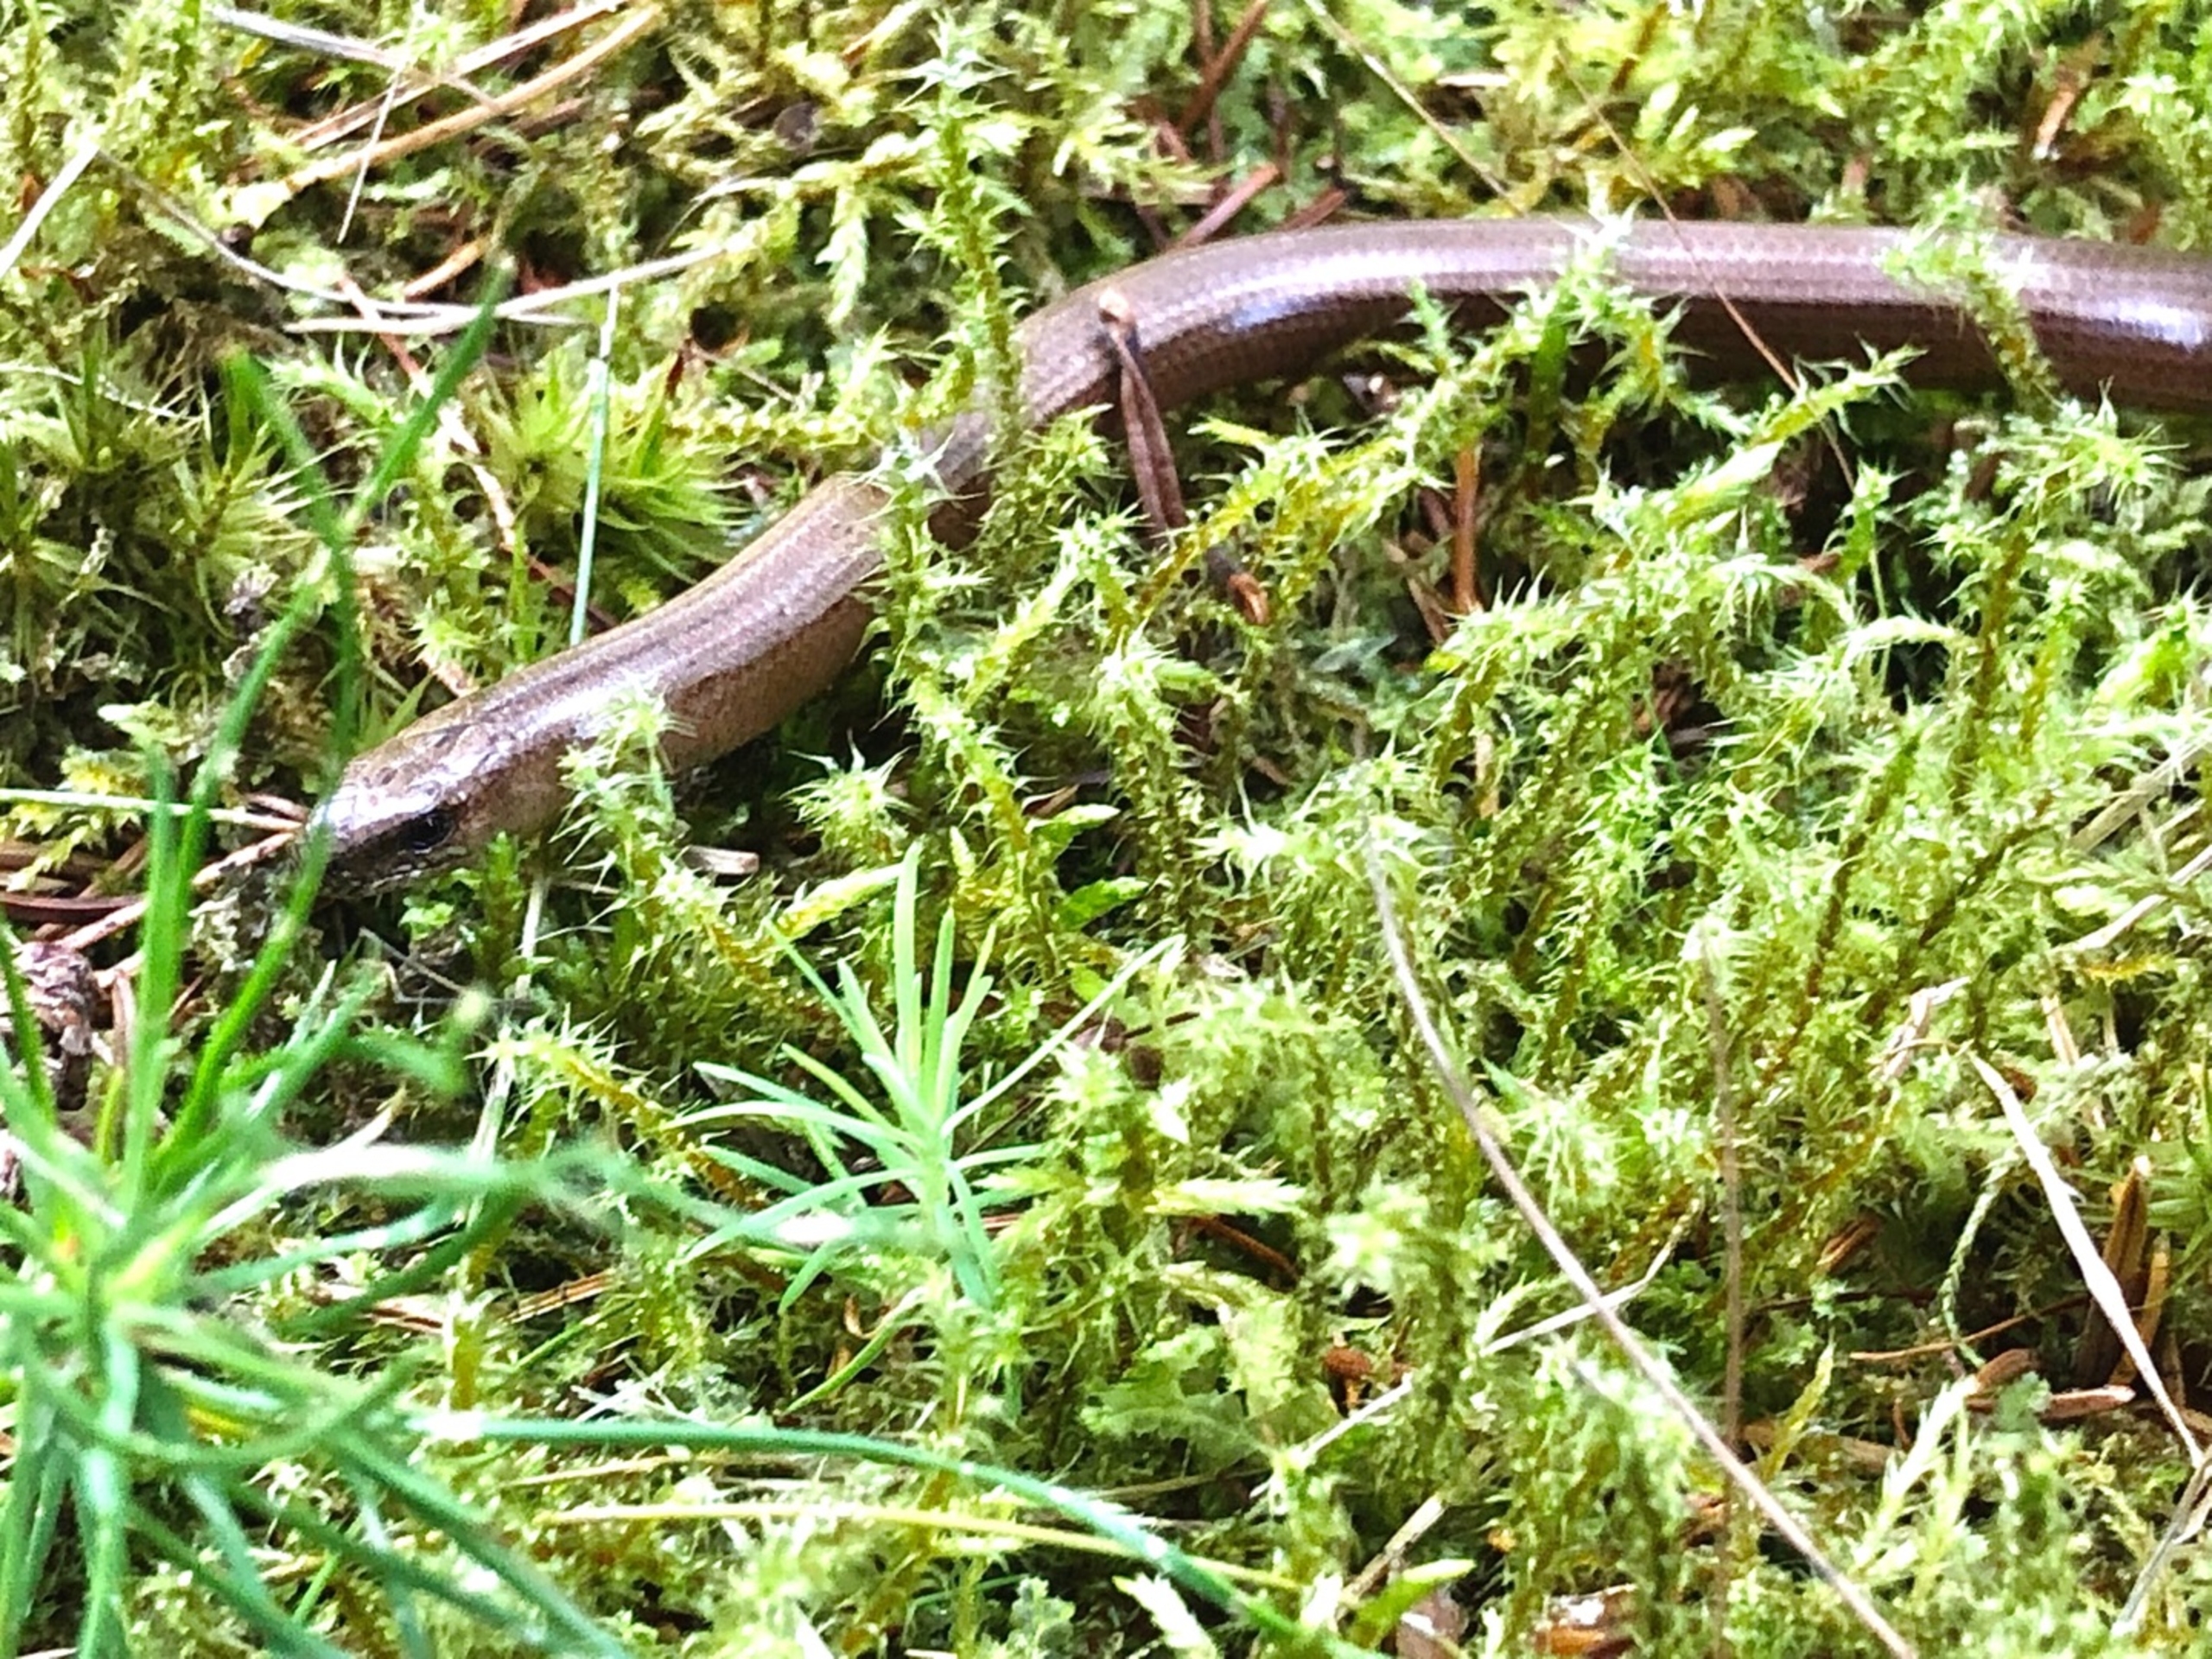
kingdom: Animalia
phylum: Chordata
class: Squamata
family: Anguidae
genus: Anguis
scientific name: Anguis fragilis
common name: Stålorm
